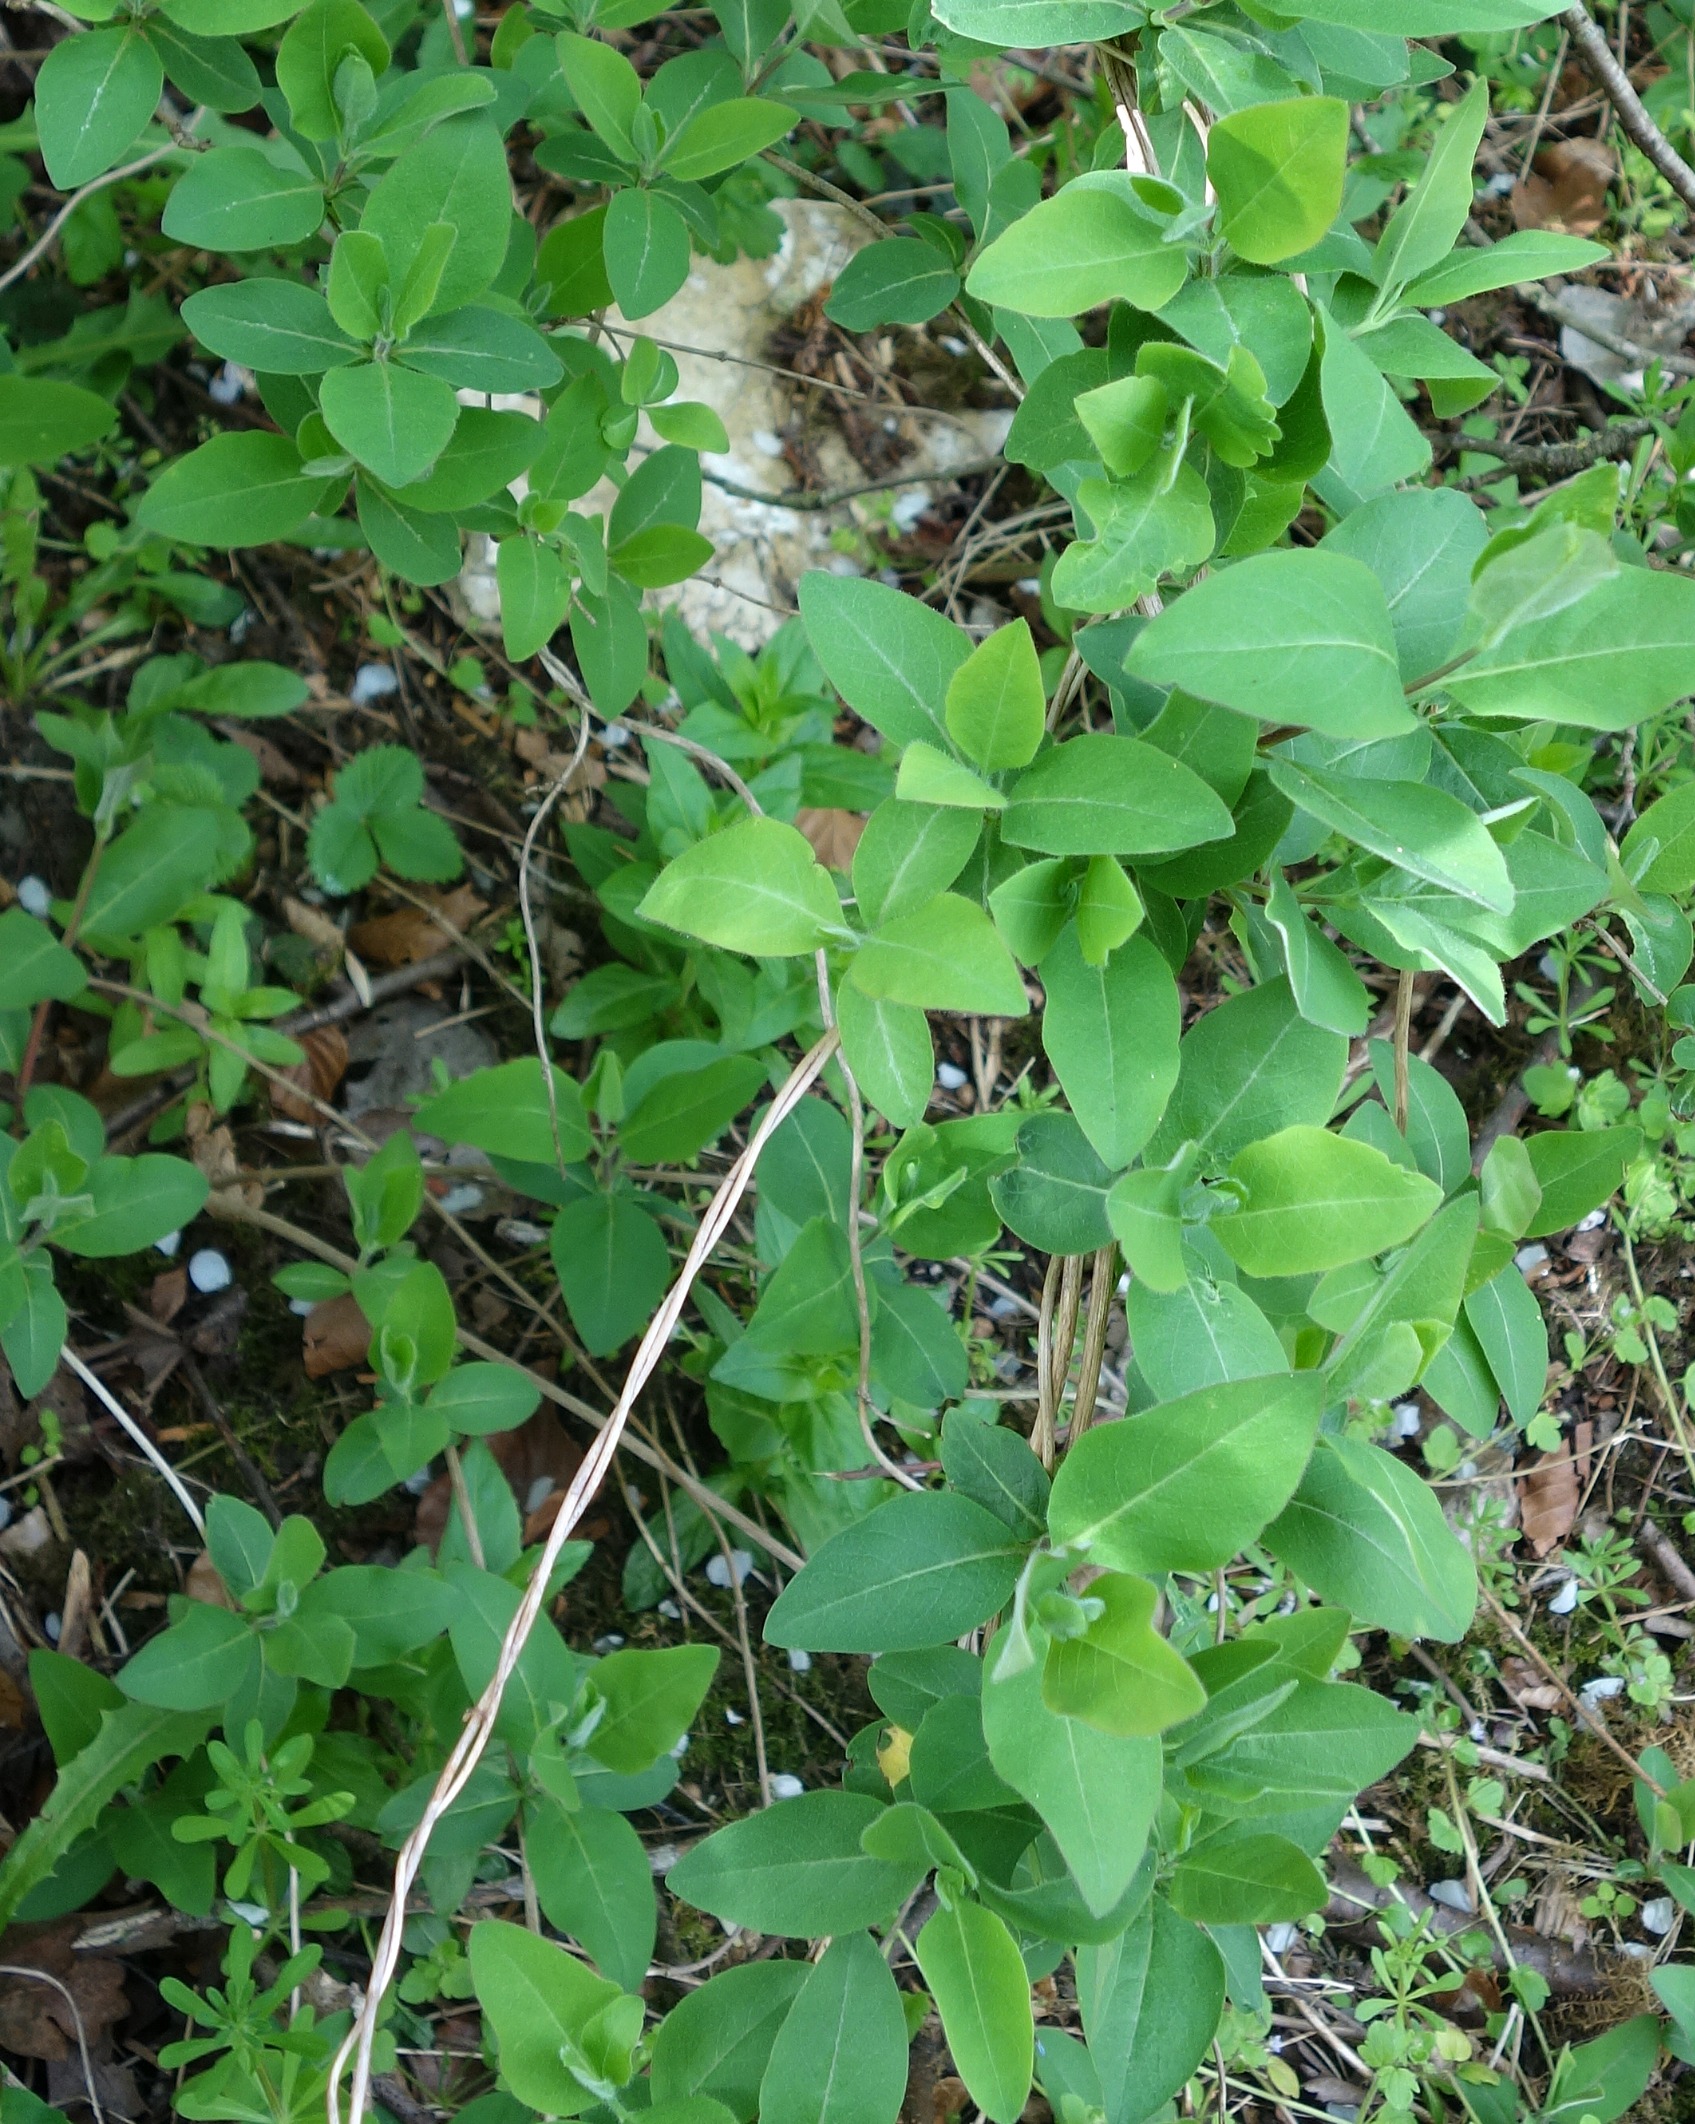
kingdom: Plantae
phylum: Tracheophyta
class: Magnoliopsida
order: Dipsacales
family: Caprifoliaceae
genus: Lonicera
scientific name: Lonicera periclymenum
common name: Almindelig gedeblad
